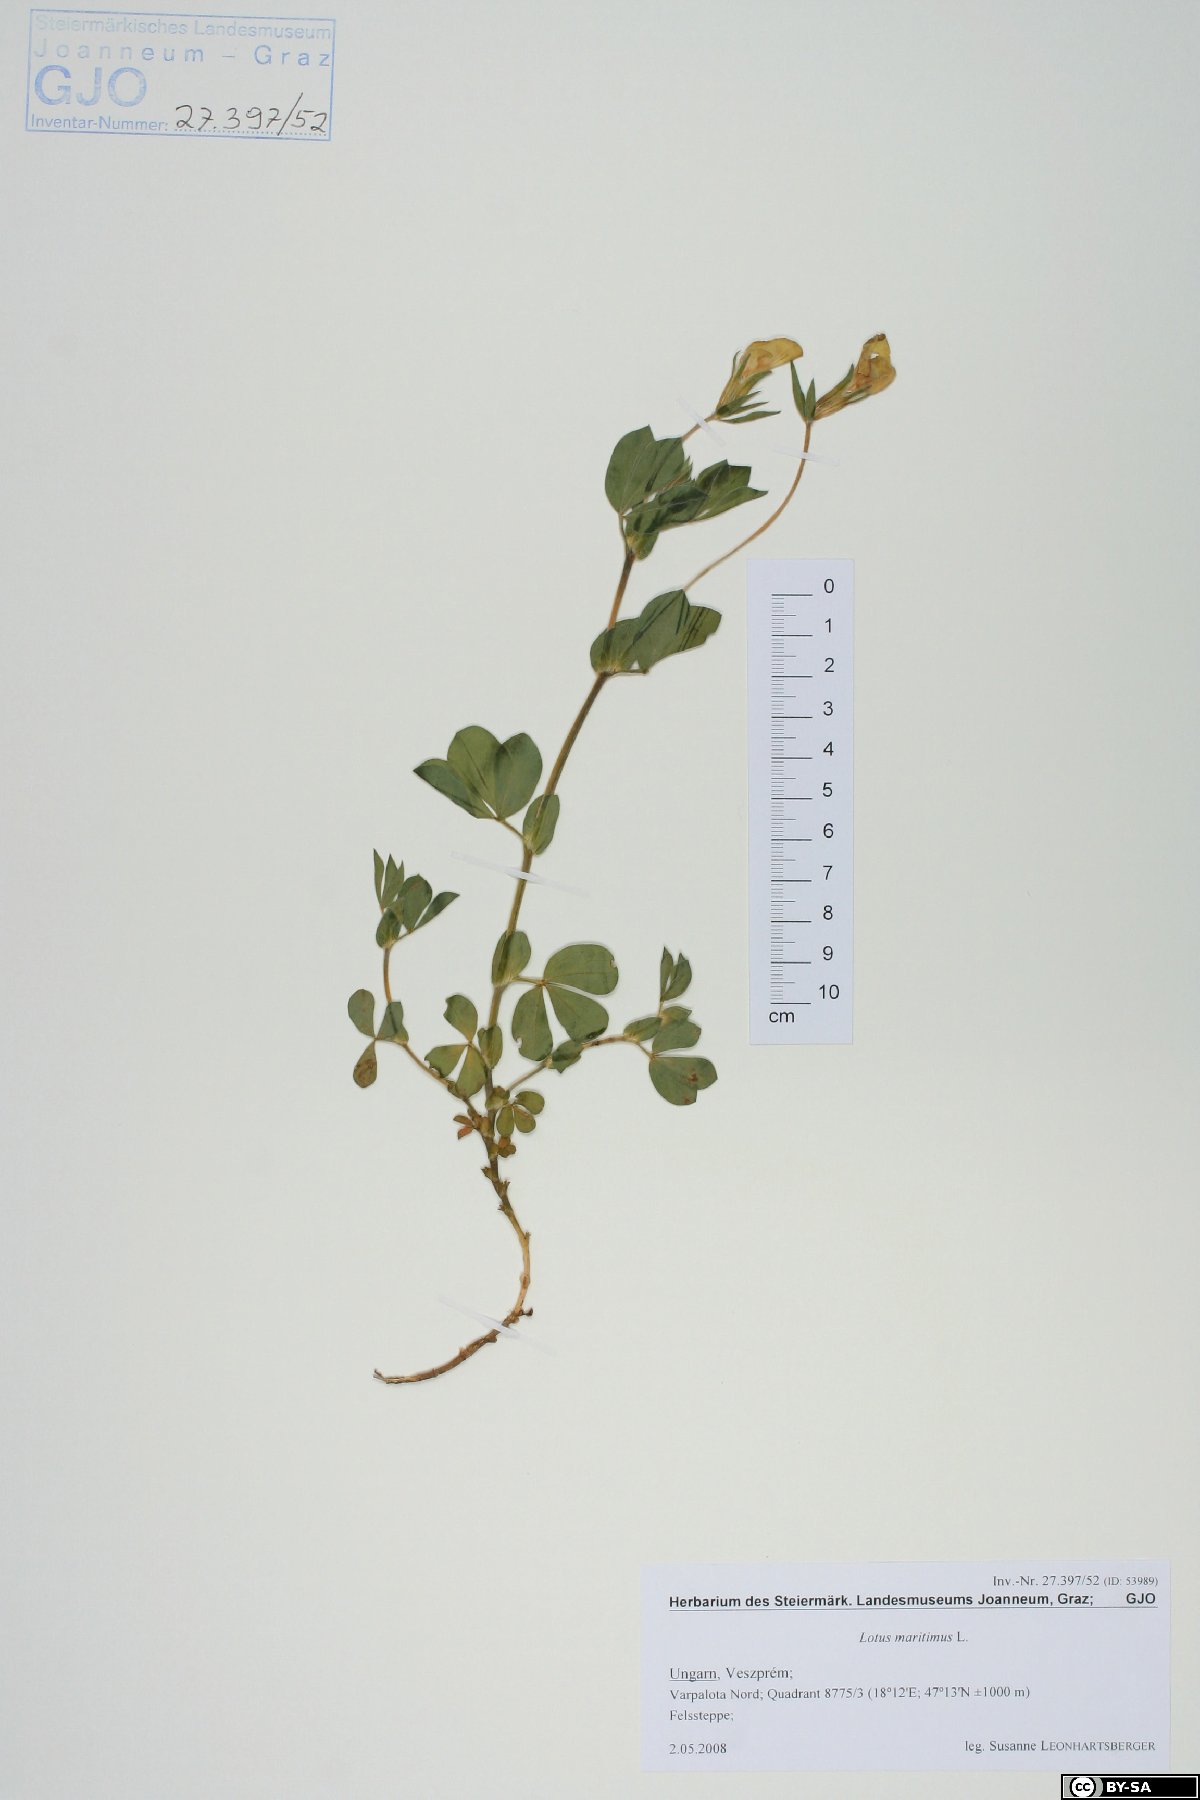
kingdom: Plantae
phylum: Tracheophyta
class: Magnoliopsida
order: Fabales
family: Fabaceae
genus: Lotus
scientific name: Lotus maritimus
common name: Dragon's-teeth
